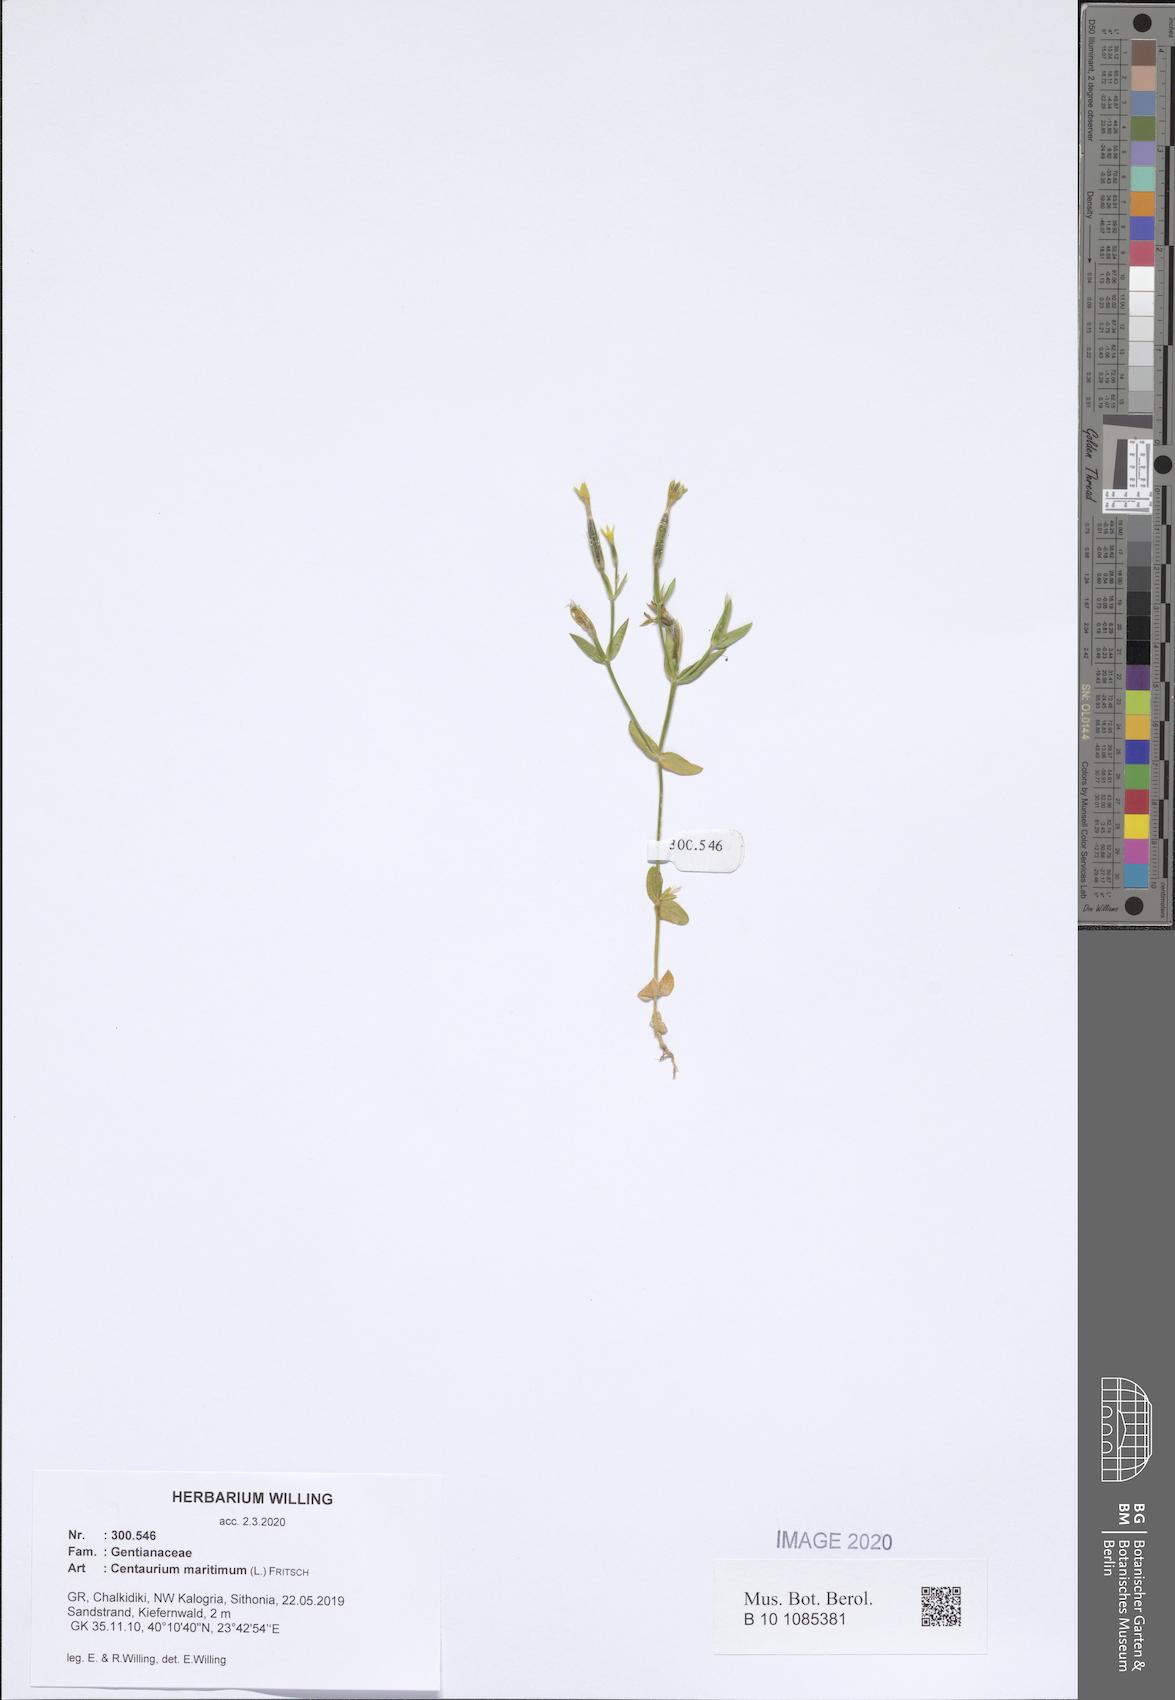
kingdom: Plantae
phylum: Tracheophyta
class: Magnoliopsida
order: Gentianales
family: Gentianaceae
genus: Centaurium
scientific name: Centaurium maritimum
